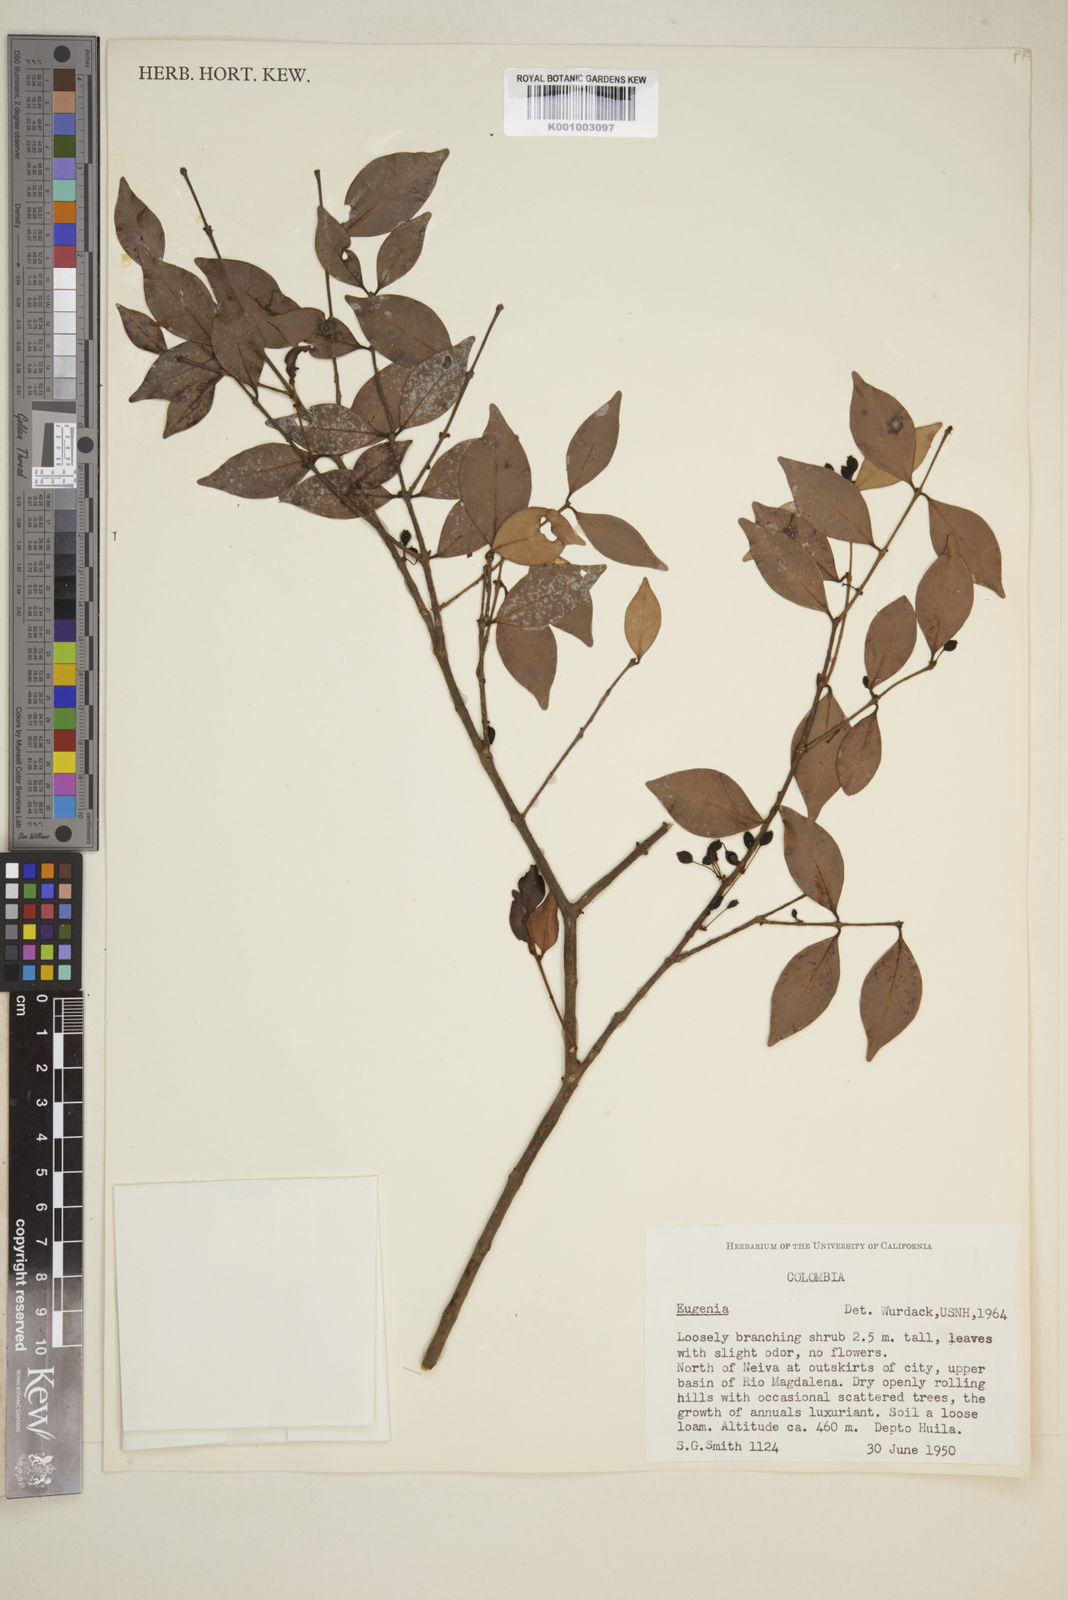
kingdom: Plantae
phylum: Tracheophyta
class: Magnoliopsida
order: Myrtales
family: Myrtaceae
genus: Eugenia
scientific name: Eugenia
